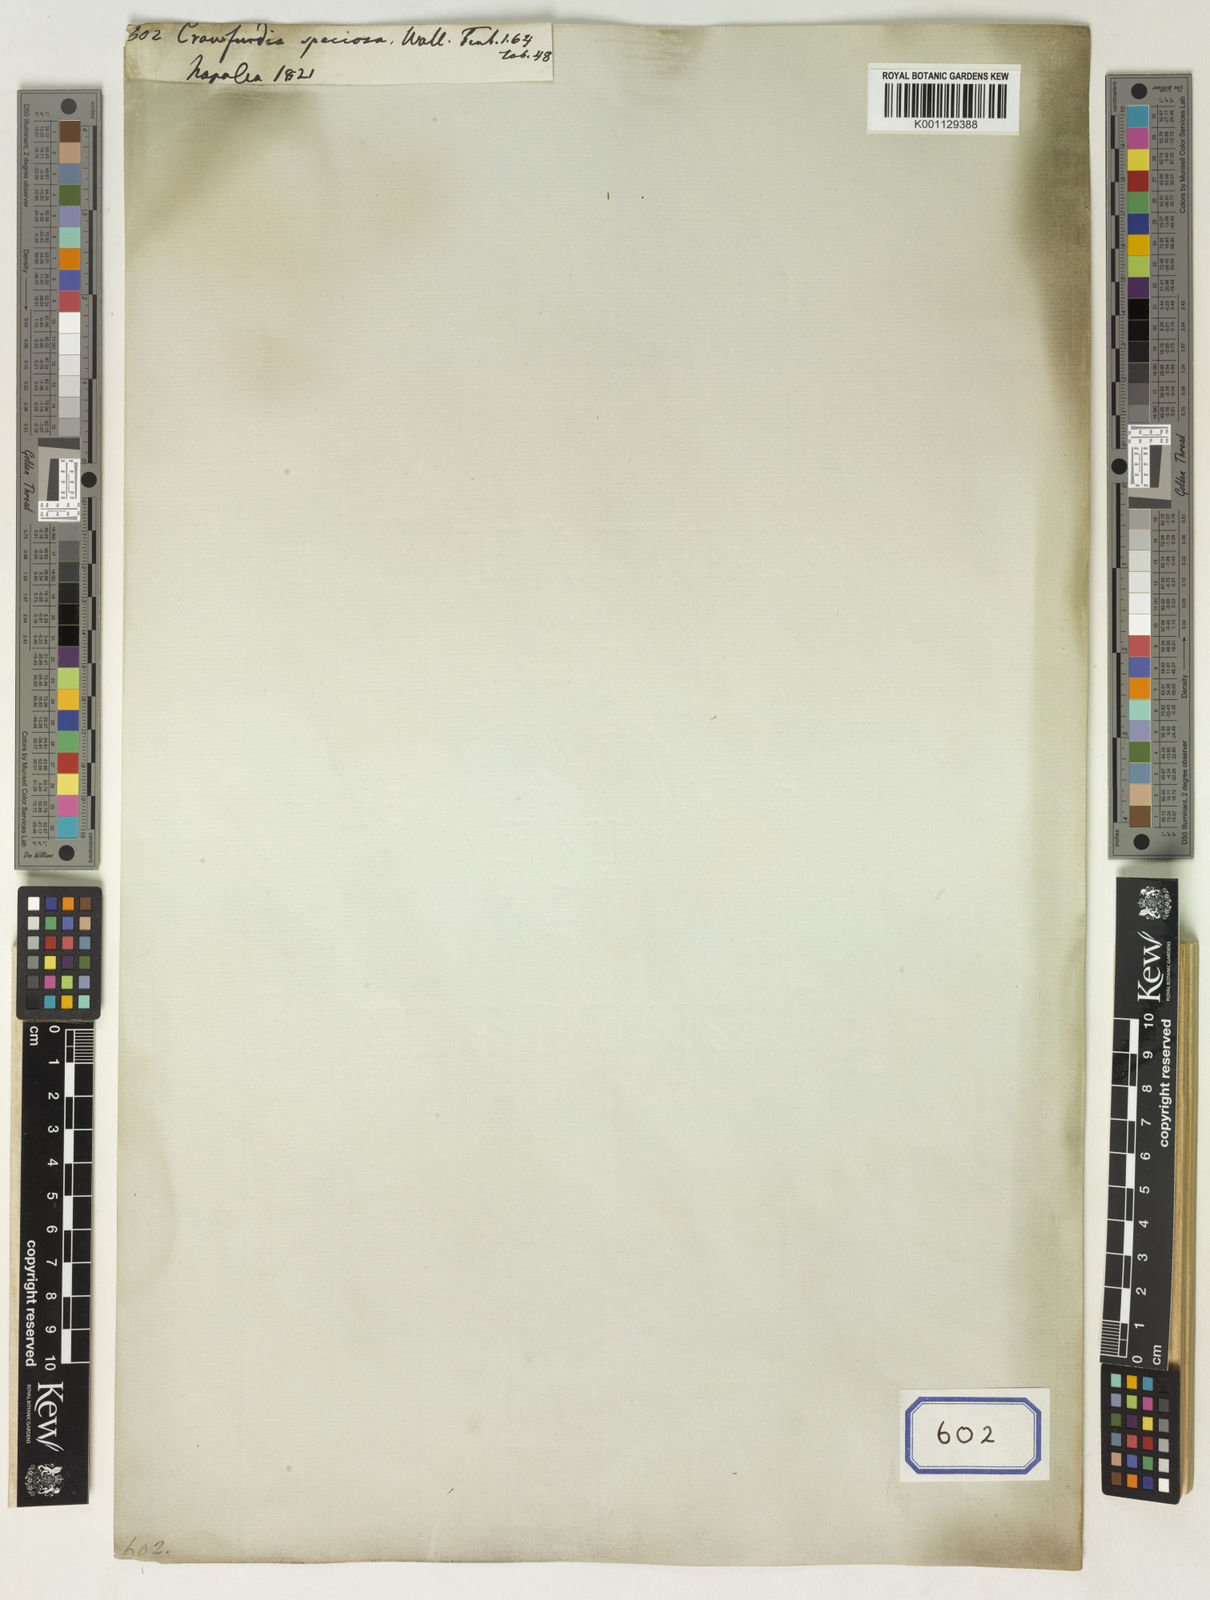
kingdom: Plantae
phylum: Tracheophyta
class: Magnoliopsida
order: Gentianales
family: Gentianaceae
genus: Crawfurdia
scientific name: Crawfurdia speciosa
